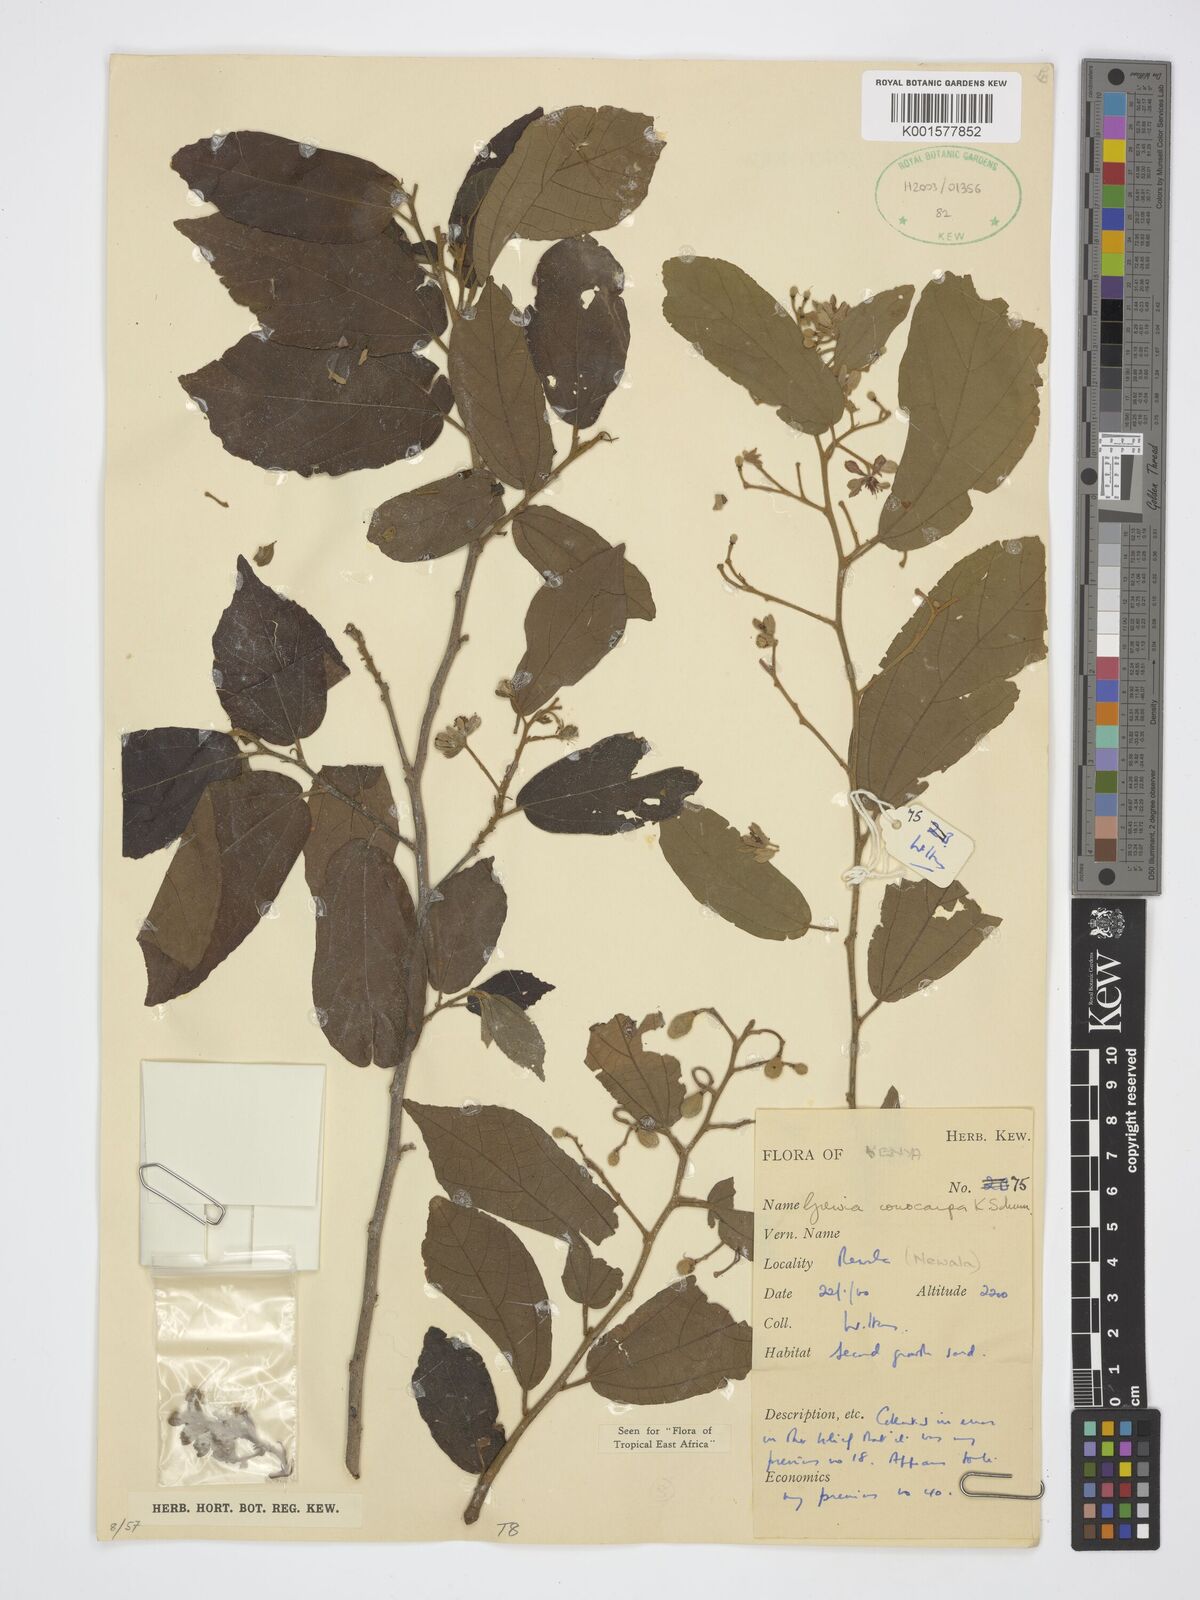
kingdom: Plantae
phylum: Tracheophyta
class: Magnoliopsida
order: Malvales
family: Malvaceae
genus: Microcos
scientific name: Microcos conocarpa
